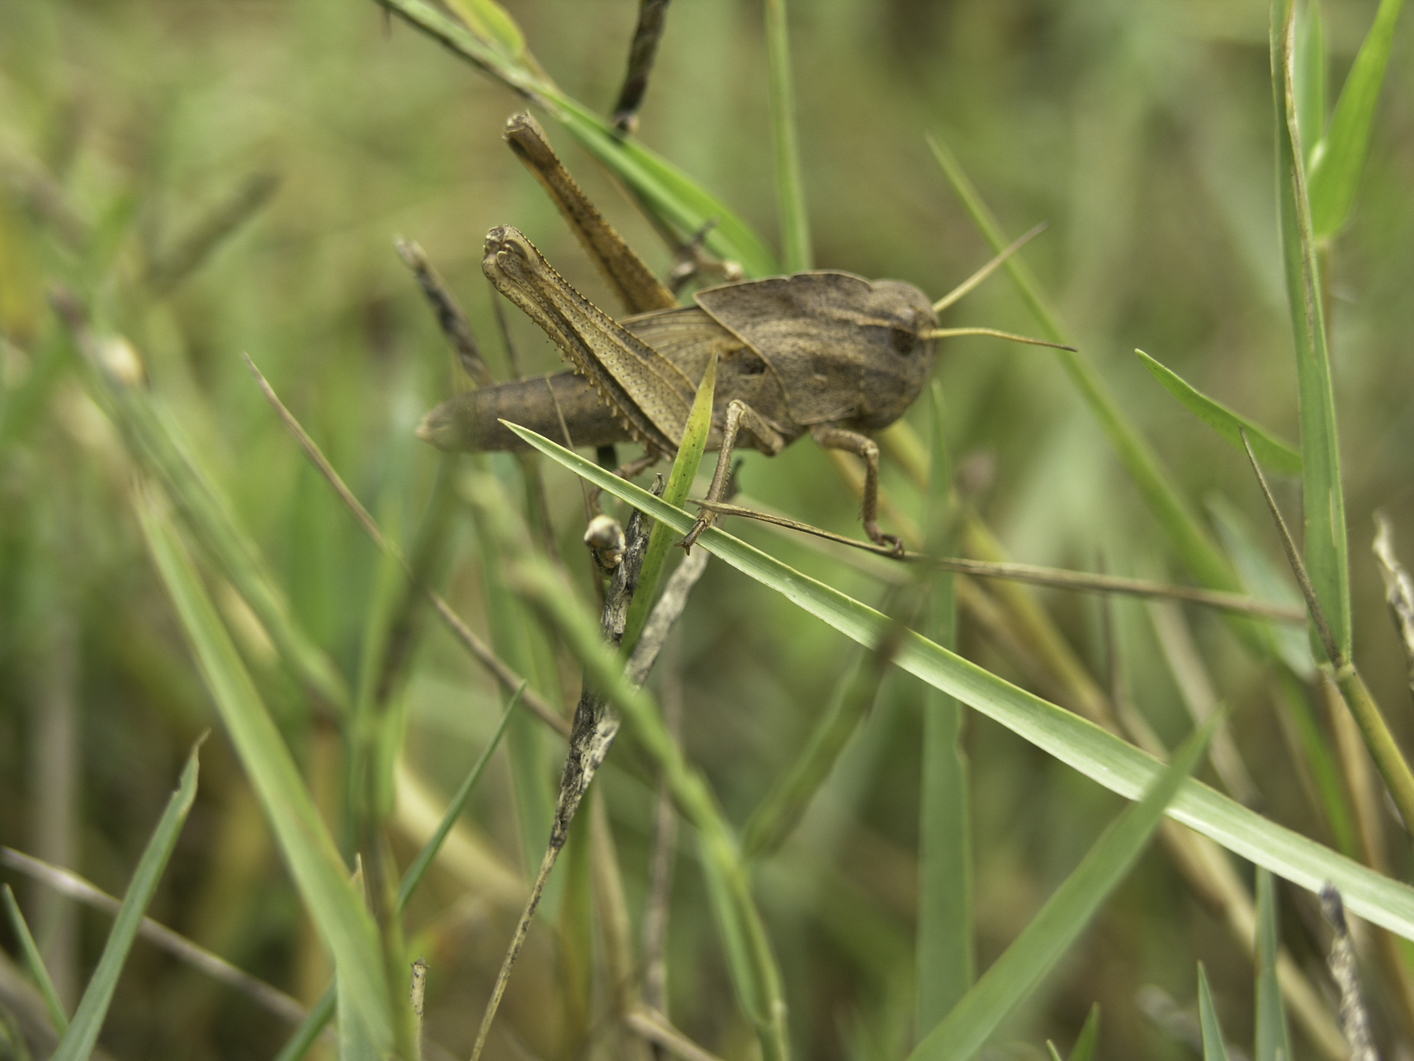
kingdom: Animalia
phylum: Arthropoda
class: Insecta
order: Orthoptera
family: Acrididae
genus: Locusta
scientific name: Locusta migratoria
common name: Migratory locust
